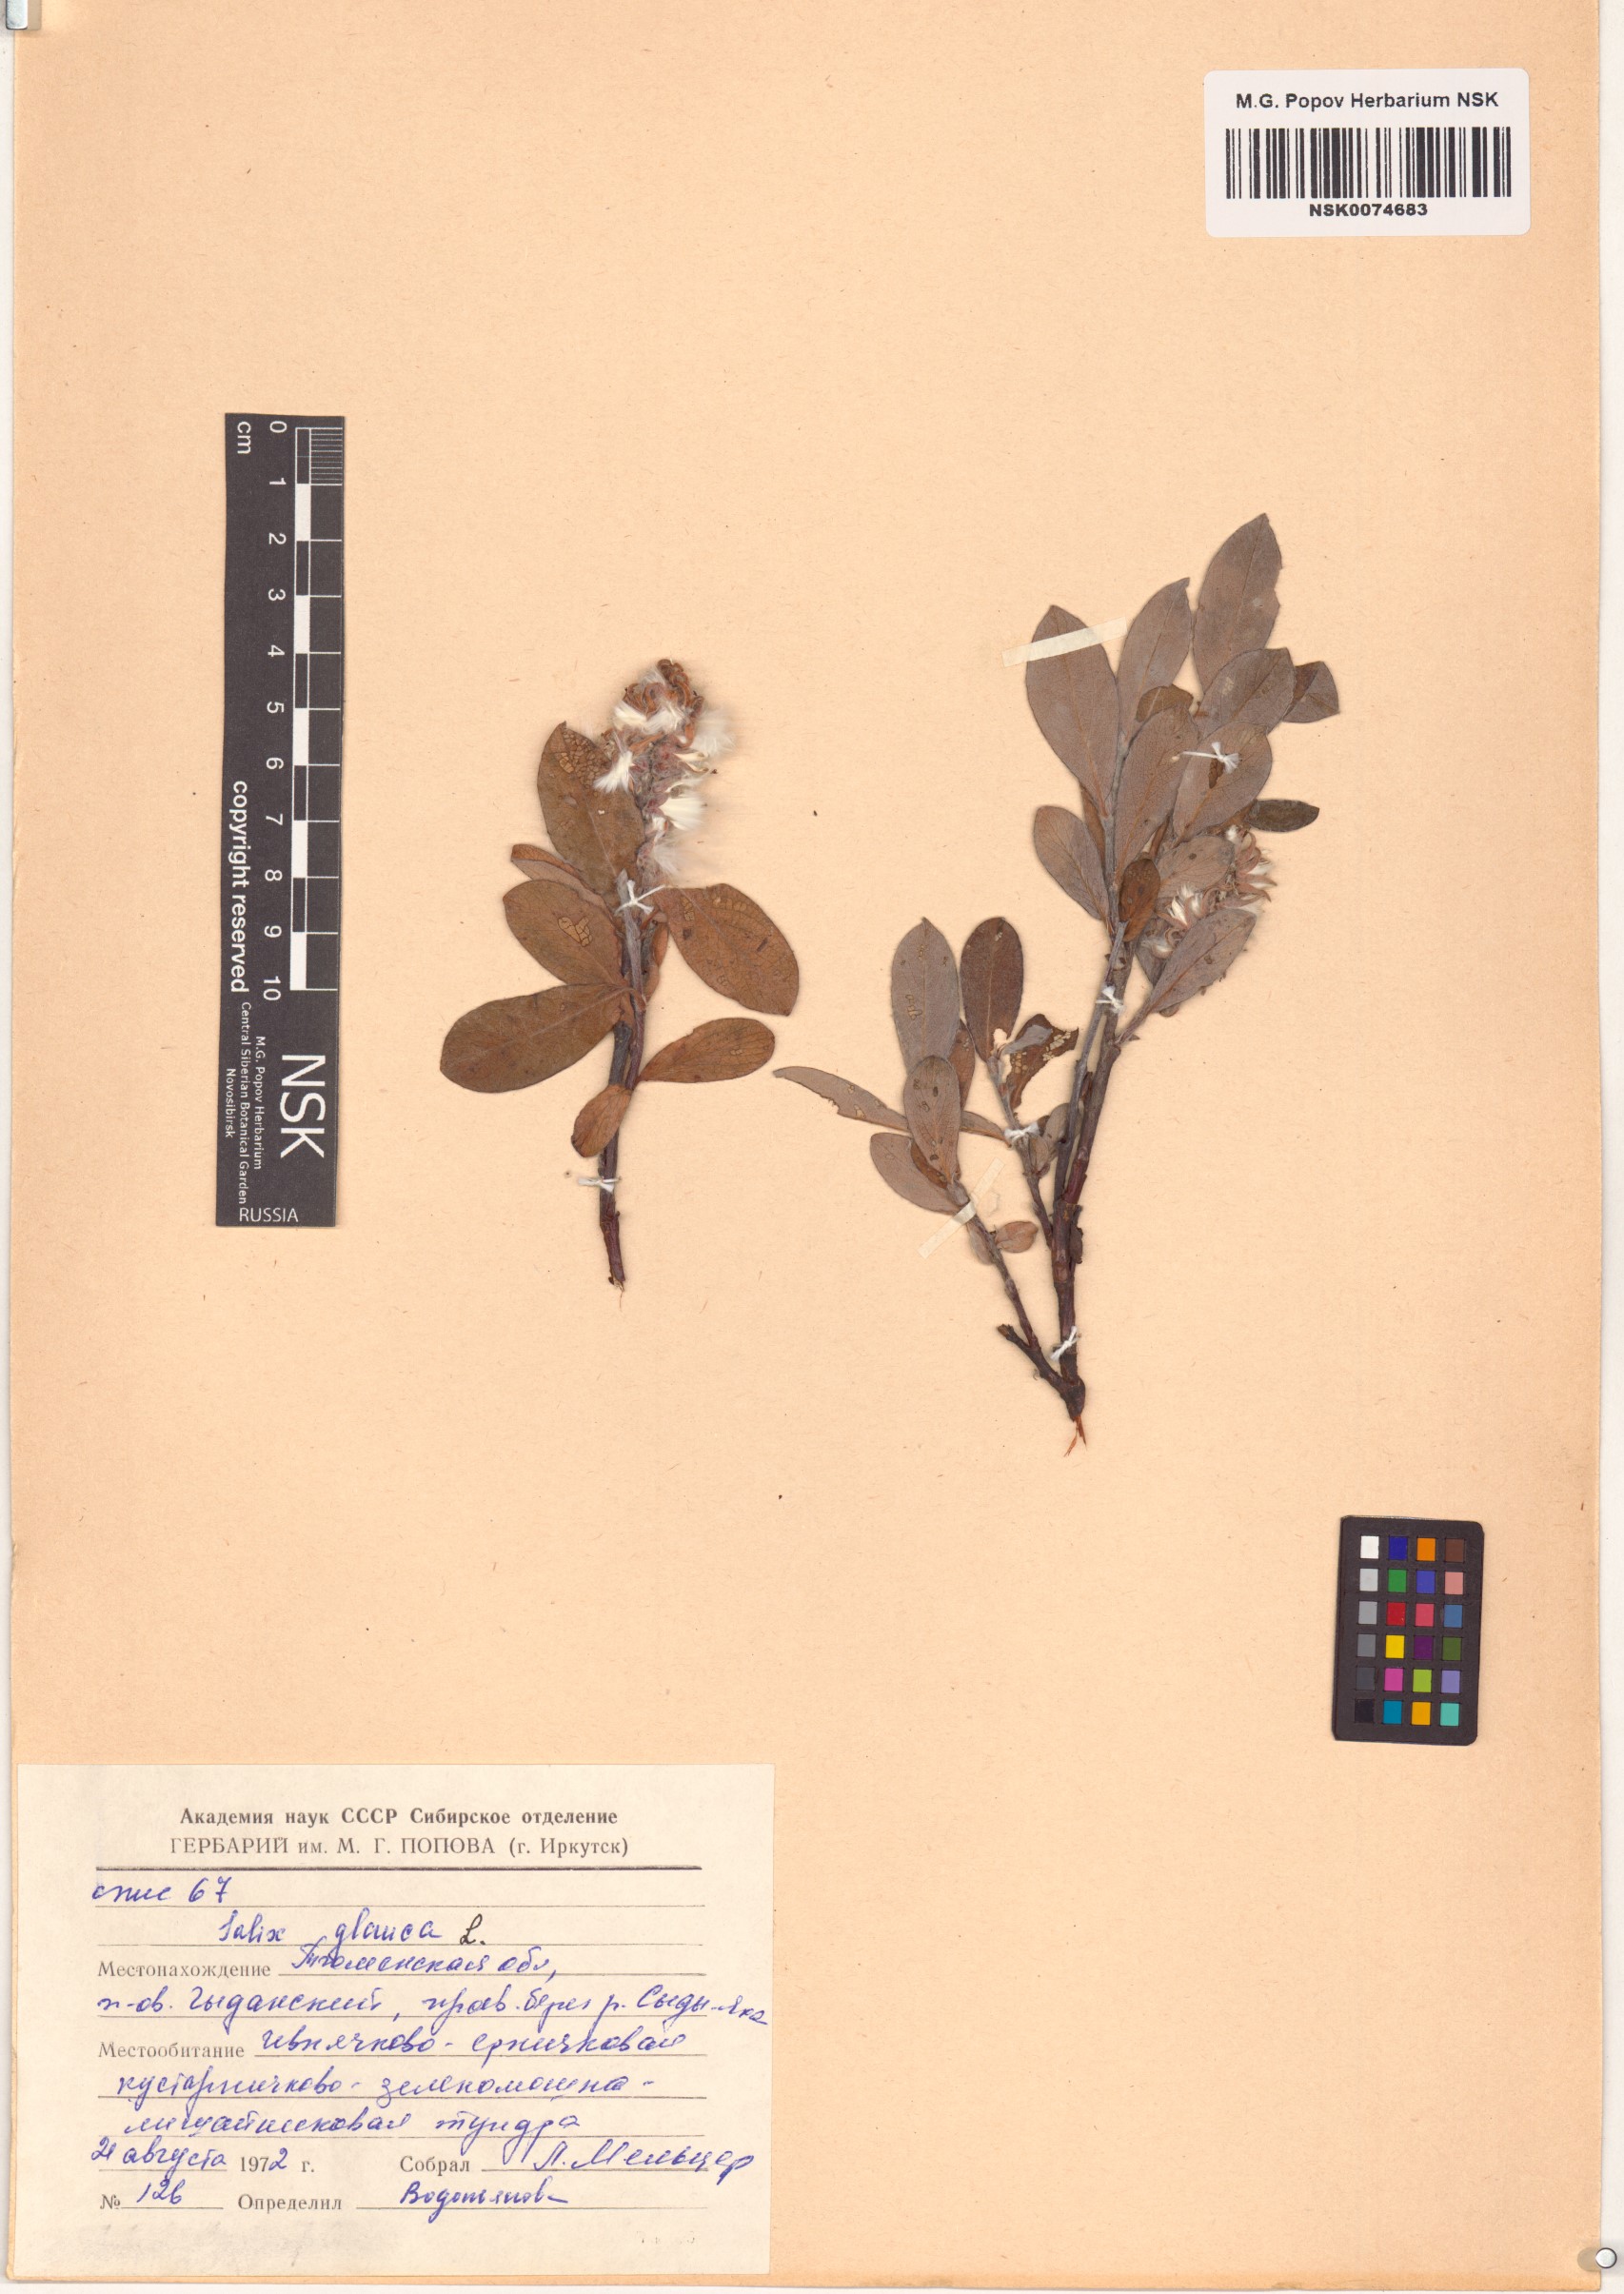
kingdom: Plantae
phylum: Tracheophyta
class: Magnoliopsida
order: Malpighiales
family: Salicaceae
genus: Salix
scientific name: Salix glauca
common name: Glaucous willow
